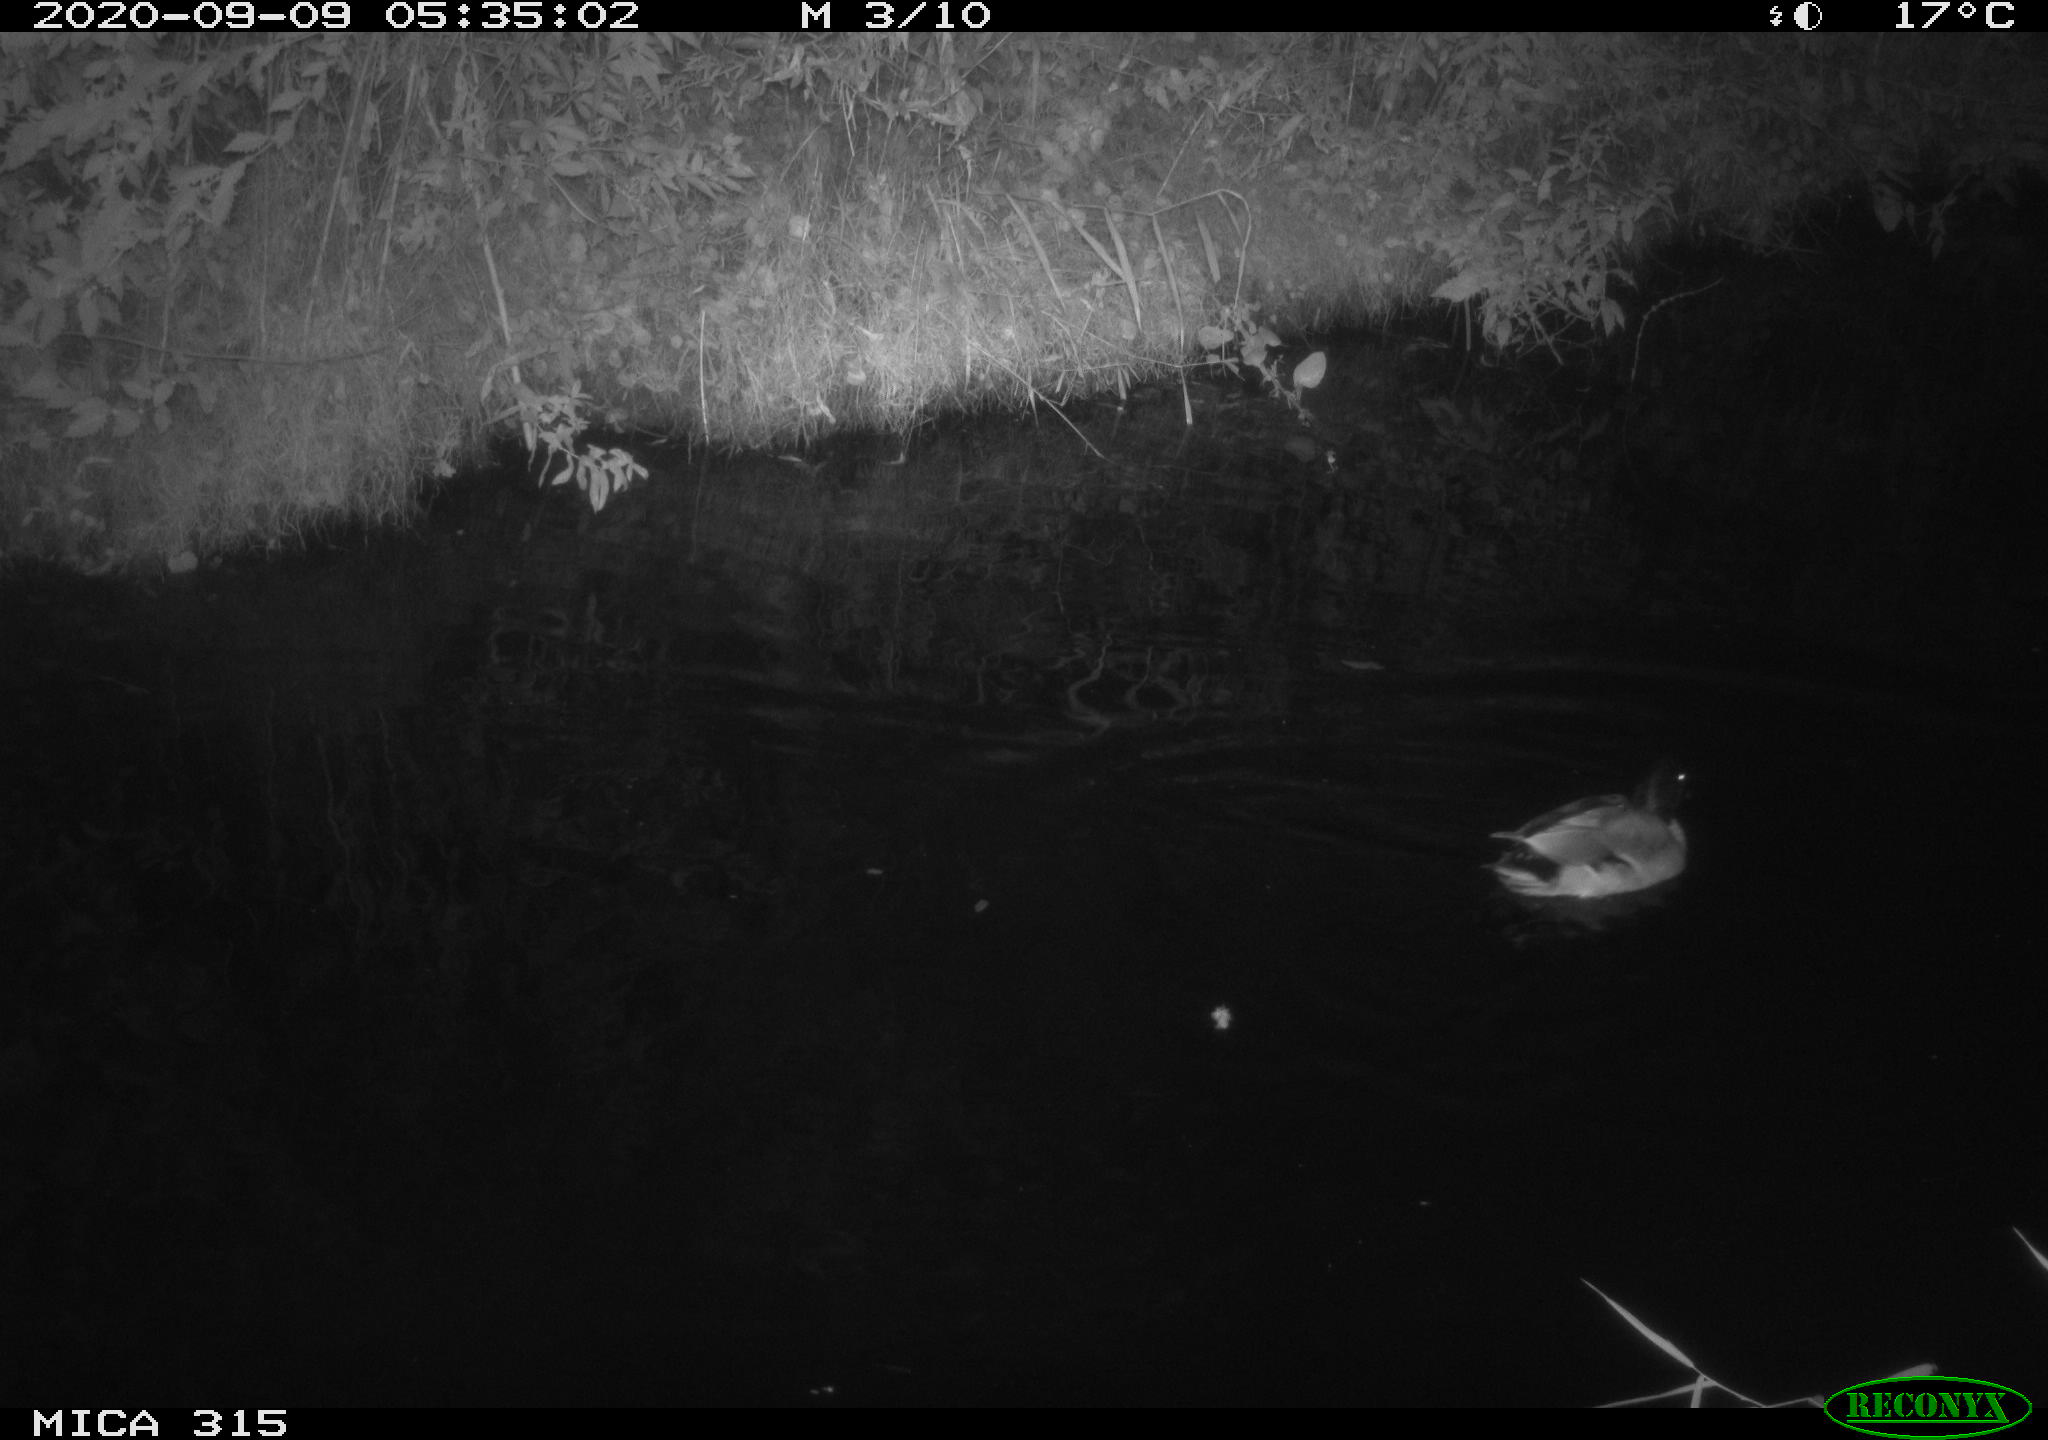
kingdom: Animalia
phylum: Chordata
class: Aves
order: Anseriformes
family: Anatidae
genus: Anas
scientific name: Anas platyrhynchos
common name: Mallard
